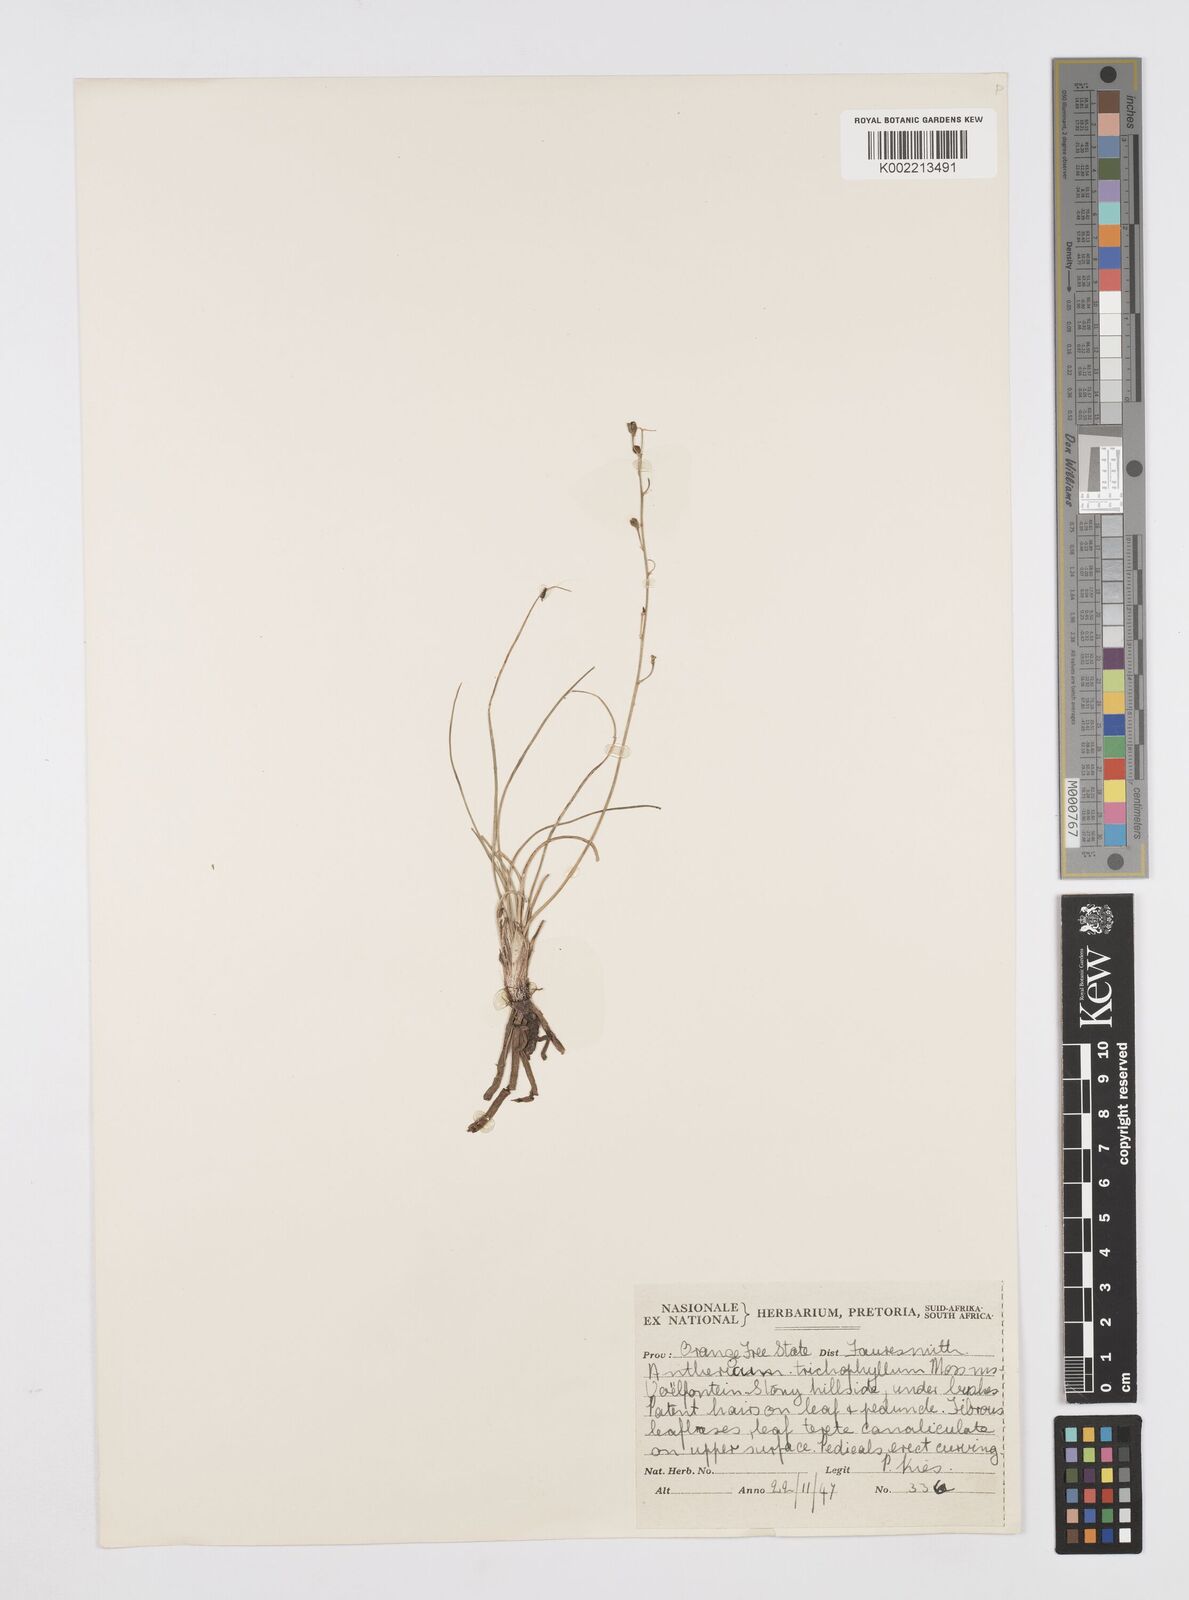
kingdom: Plantae
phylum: Tracheophyta
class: Liliopsida
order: Asparagales
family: Asphodelaceae
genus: Trachyandra
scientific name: Trachyandra saltii
